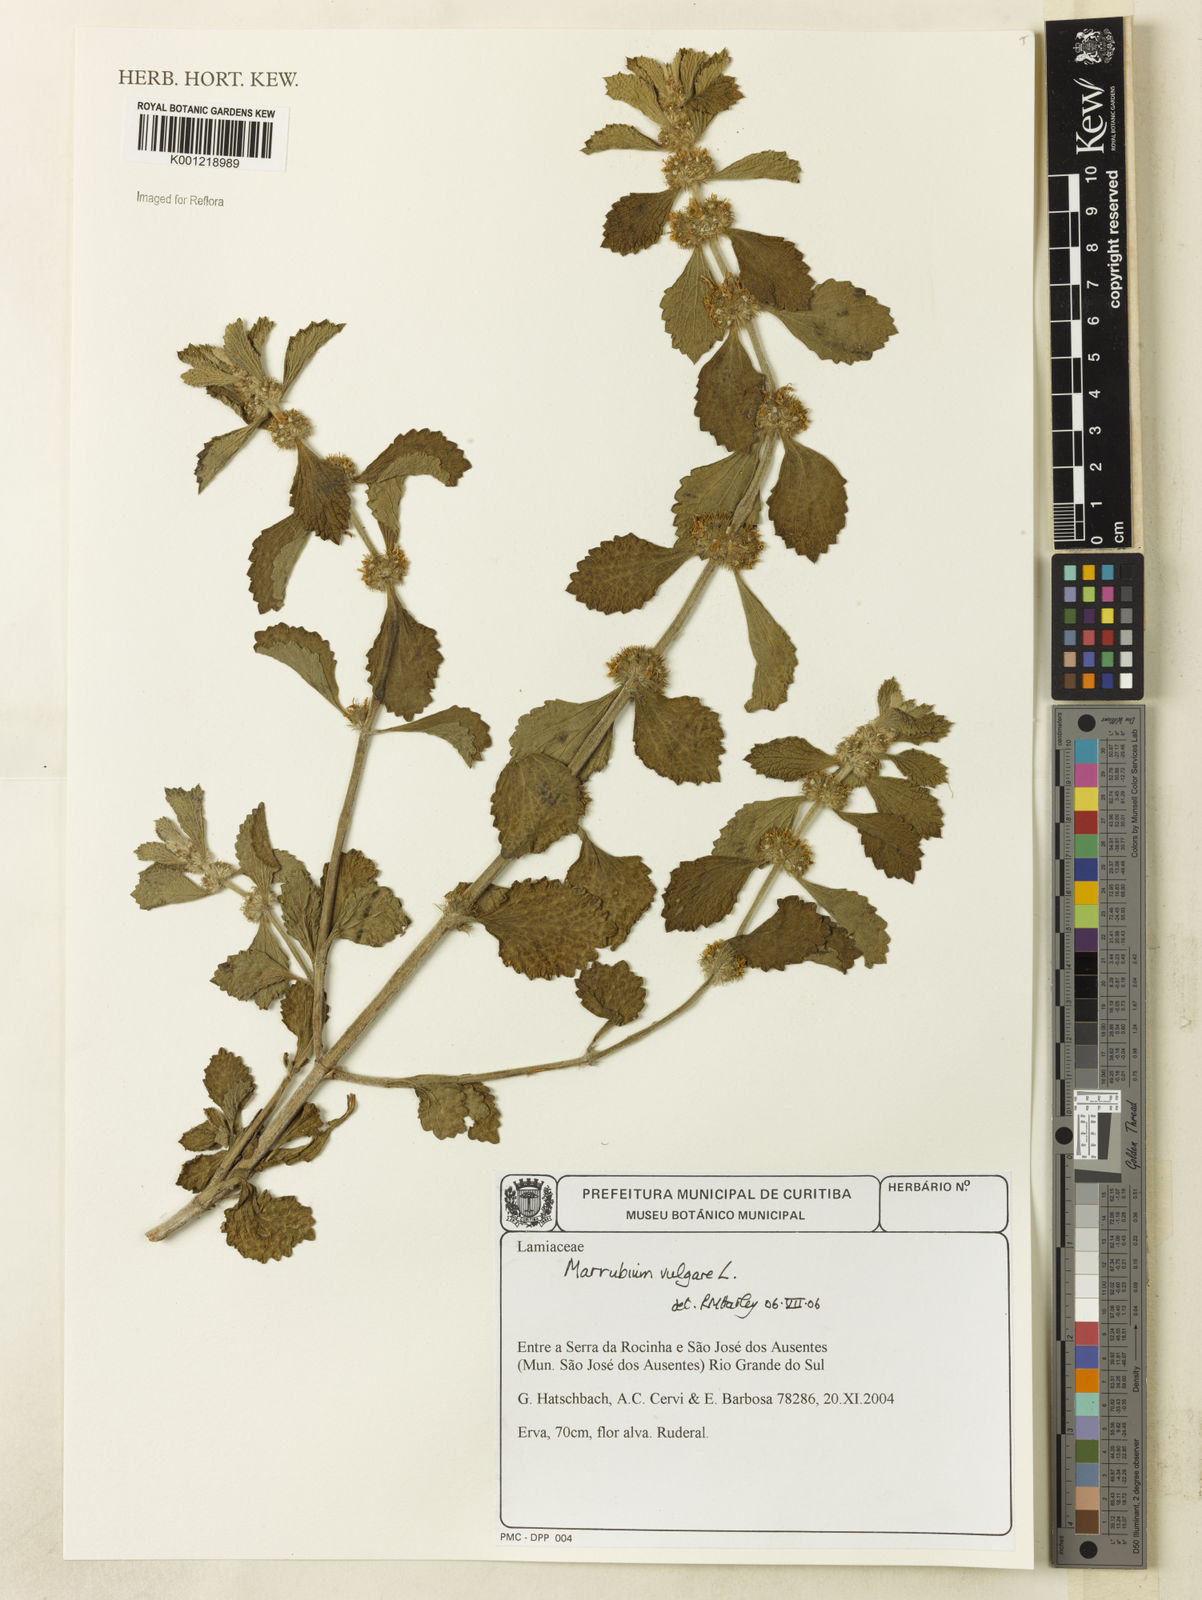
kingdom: Plantae
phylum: Tracheophyta
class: Magnoliopsida
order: Lamiales
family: Lamiaceae
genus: Marrubium
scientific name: Marrubium vulgare
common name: Horehound
